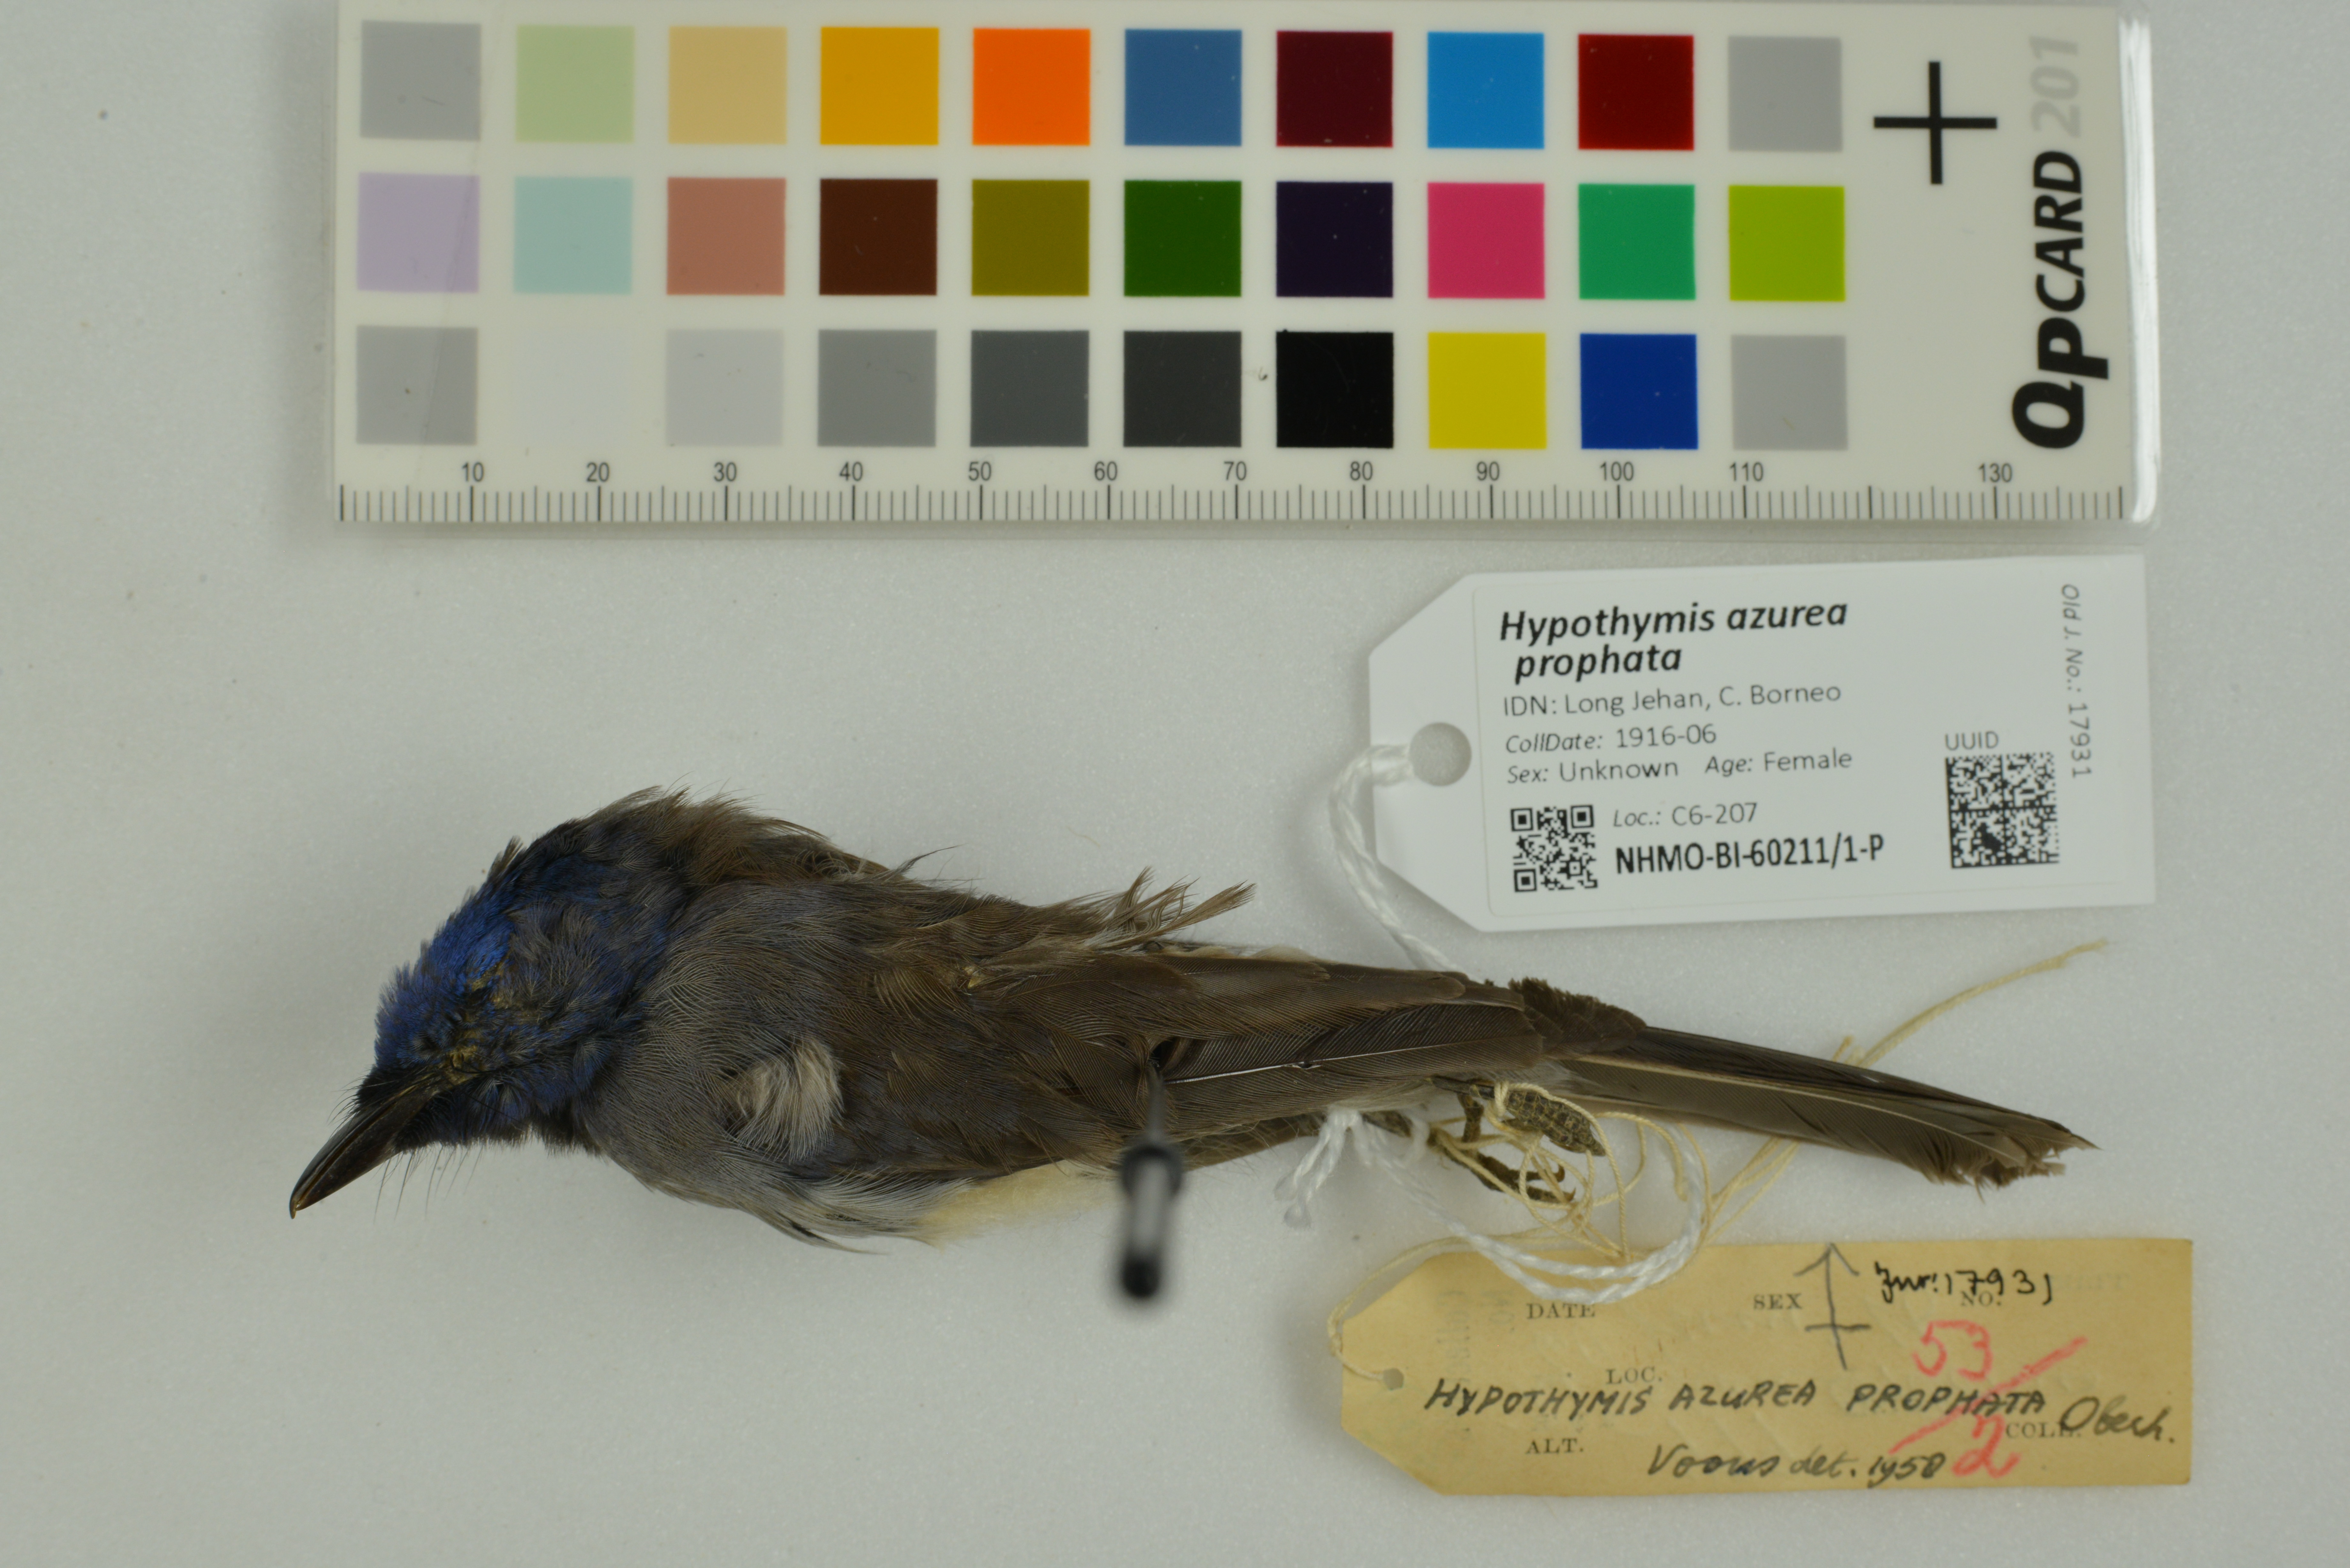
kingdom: Animalia
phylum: Chordata
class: Aves
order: Passeriformes
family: Monarchidae
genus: Hypothymis
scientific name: Hypothymis azurea
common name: Black-naped monarch
